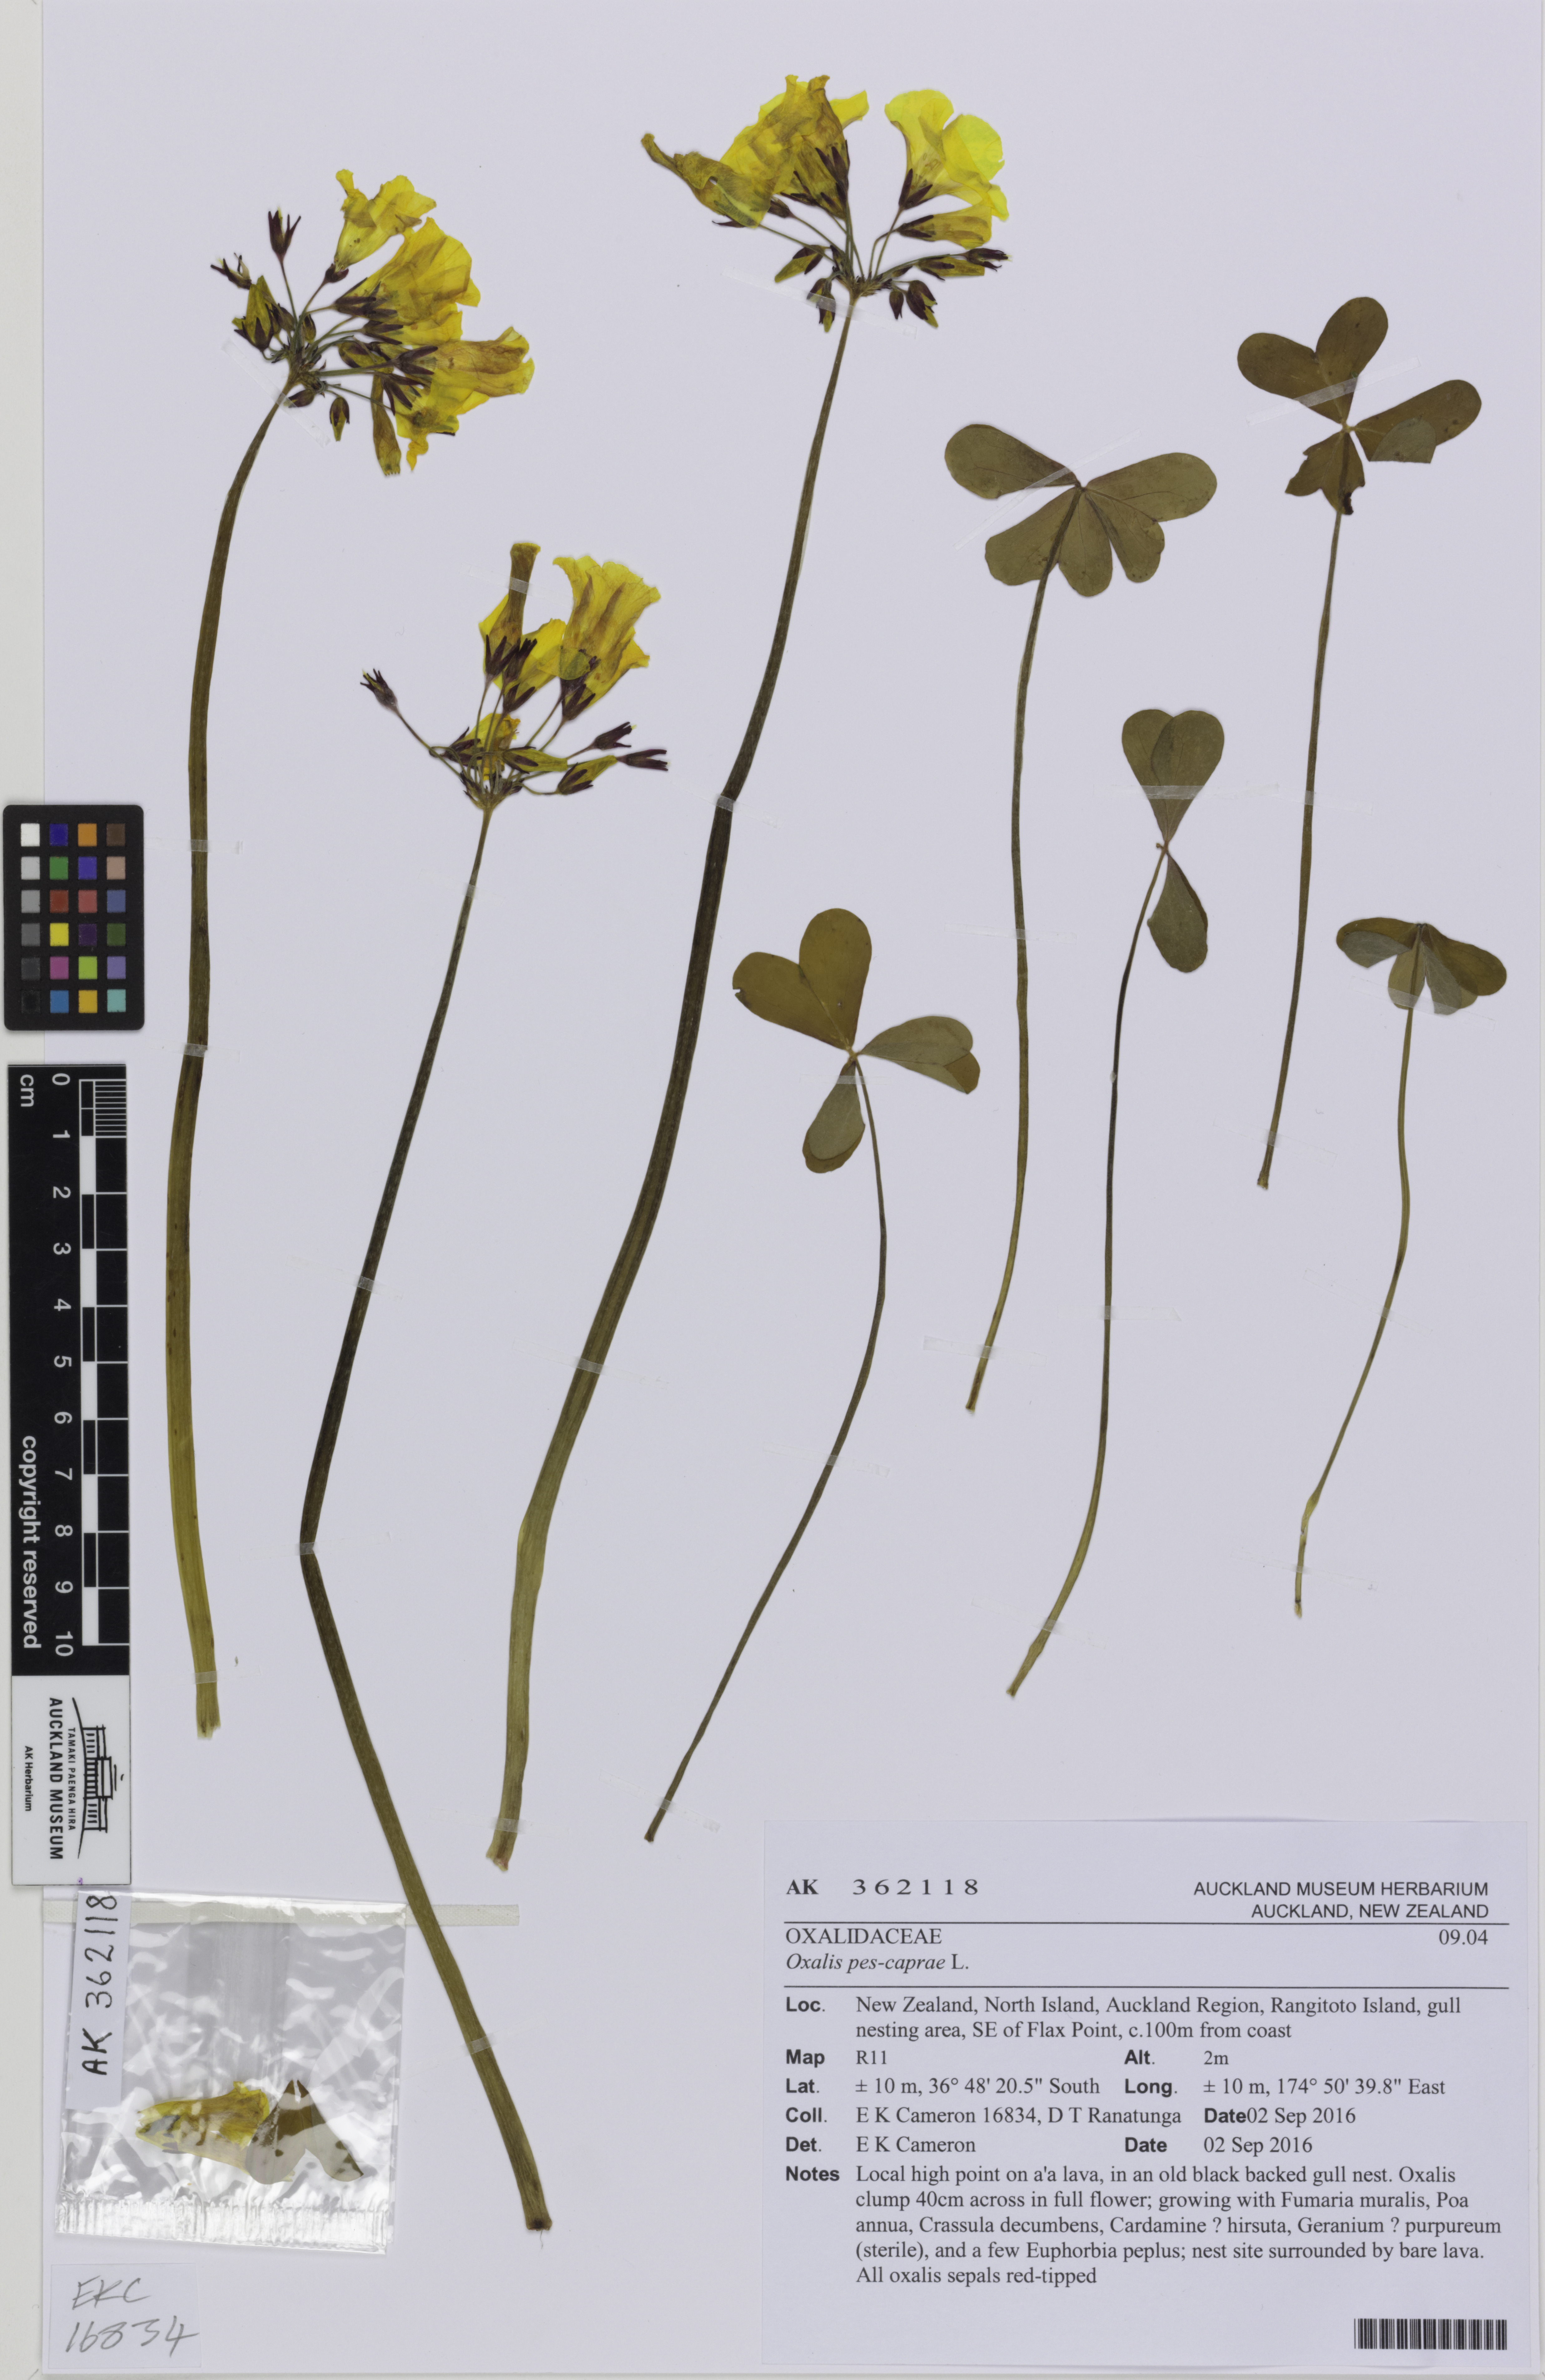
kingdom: Plantae
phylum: Tracheophyta
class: Magnoliopsida
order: Oxalidales
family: Oxalidaceae
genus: Oxalis
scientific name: Oxalis pes-caprae
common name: Bermuda-buttercup
